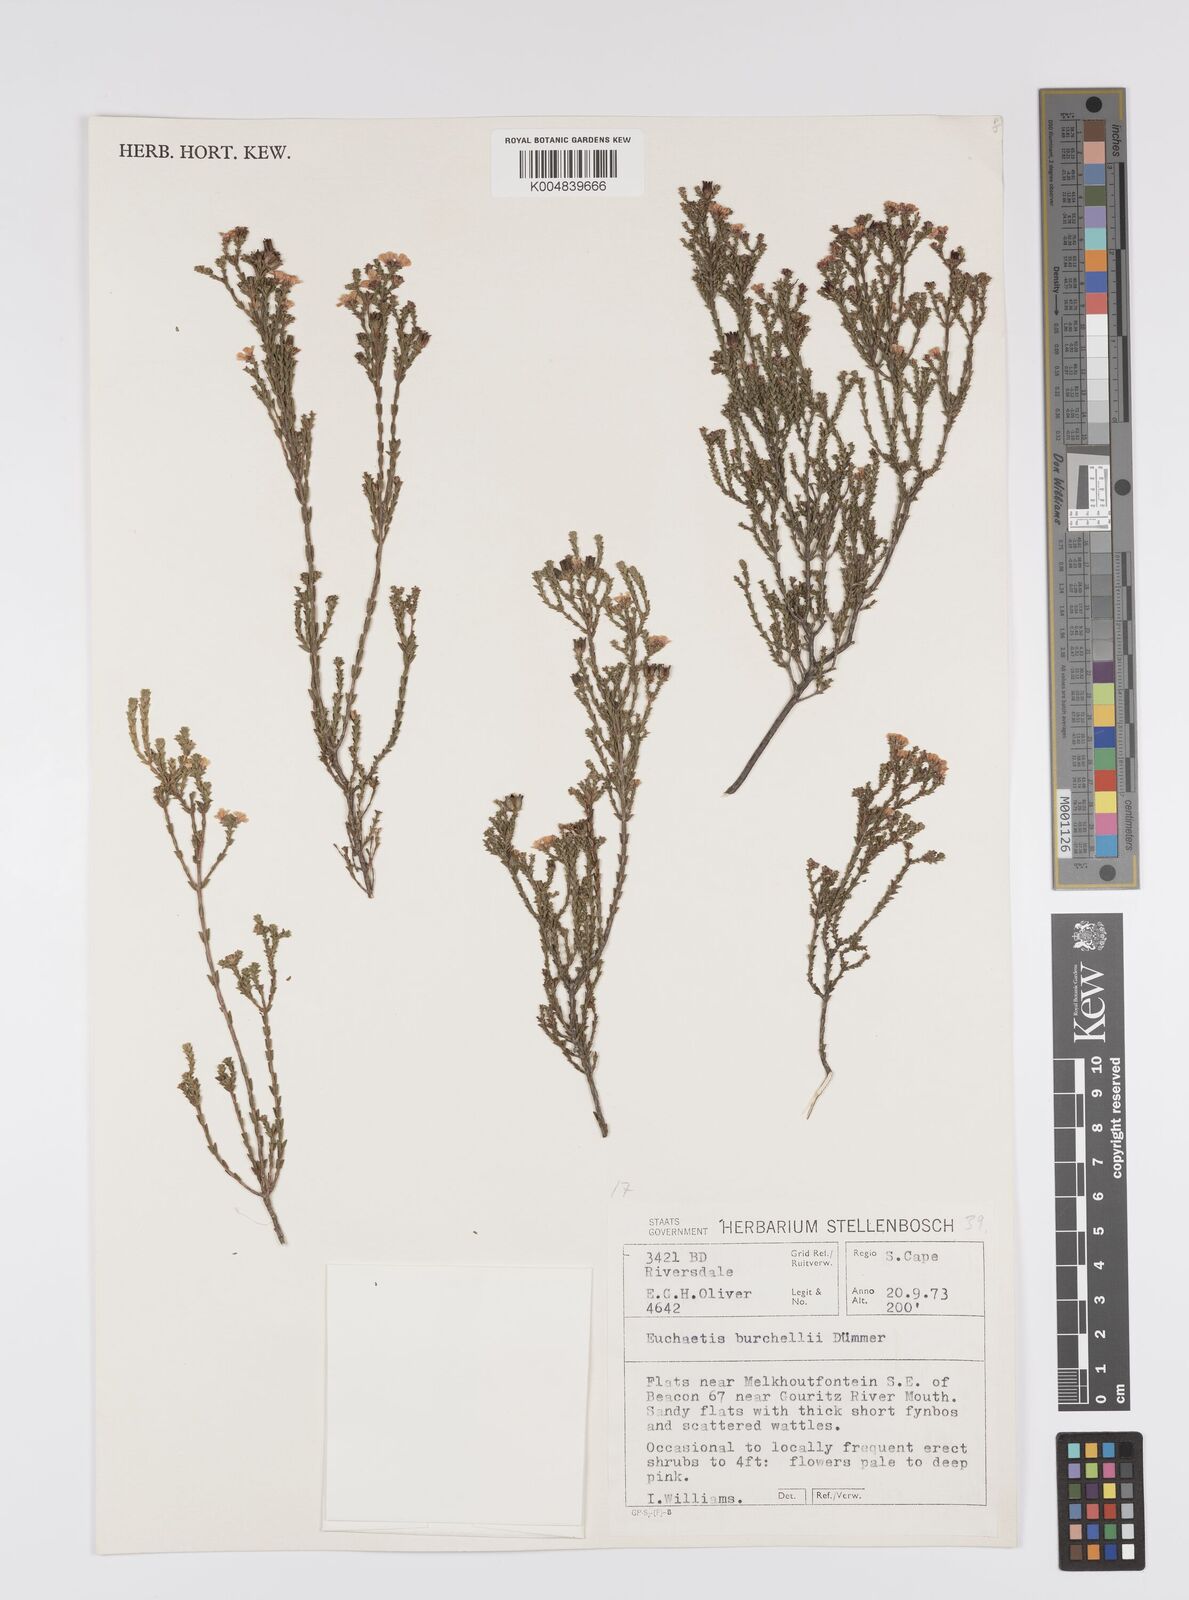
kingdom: Plantae
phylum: Tracheophyta
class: Magnoliopsida
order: Sapindales
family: Rutaceae
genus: Euchaetis
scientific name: Euchaetis burchellii
